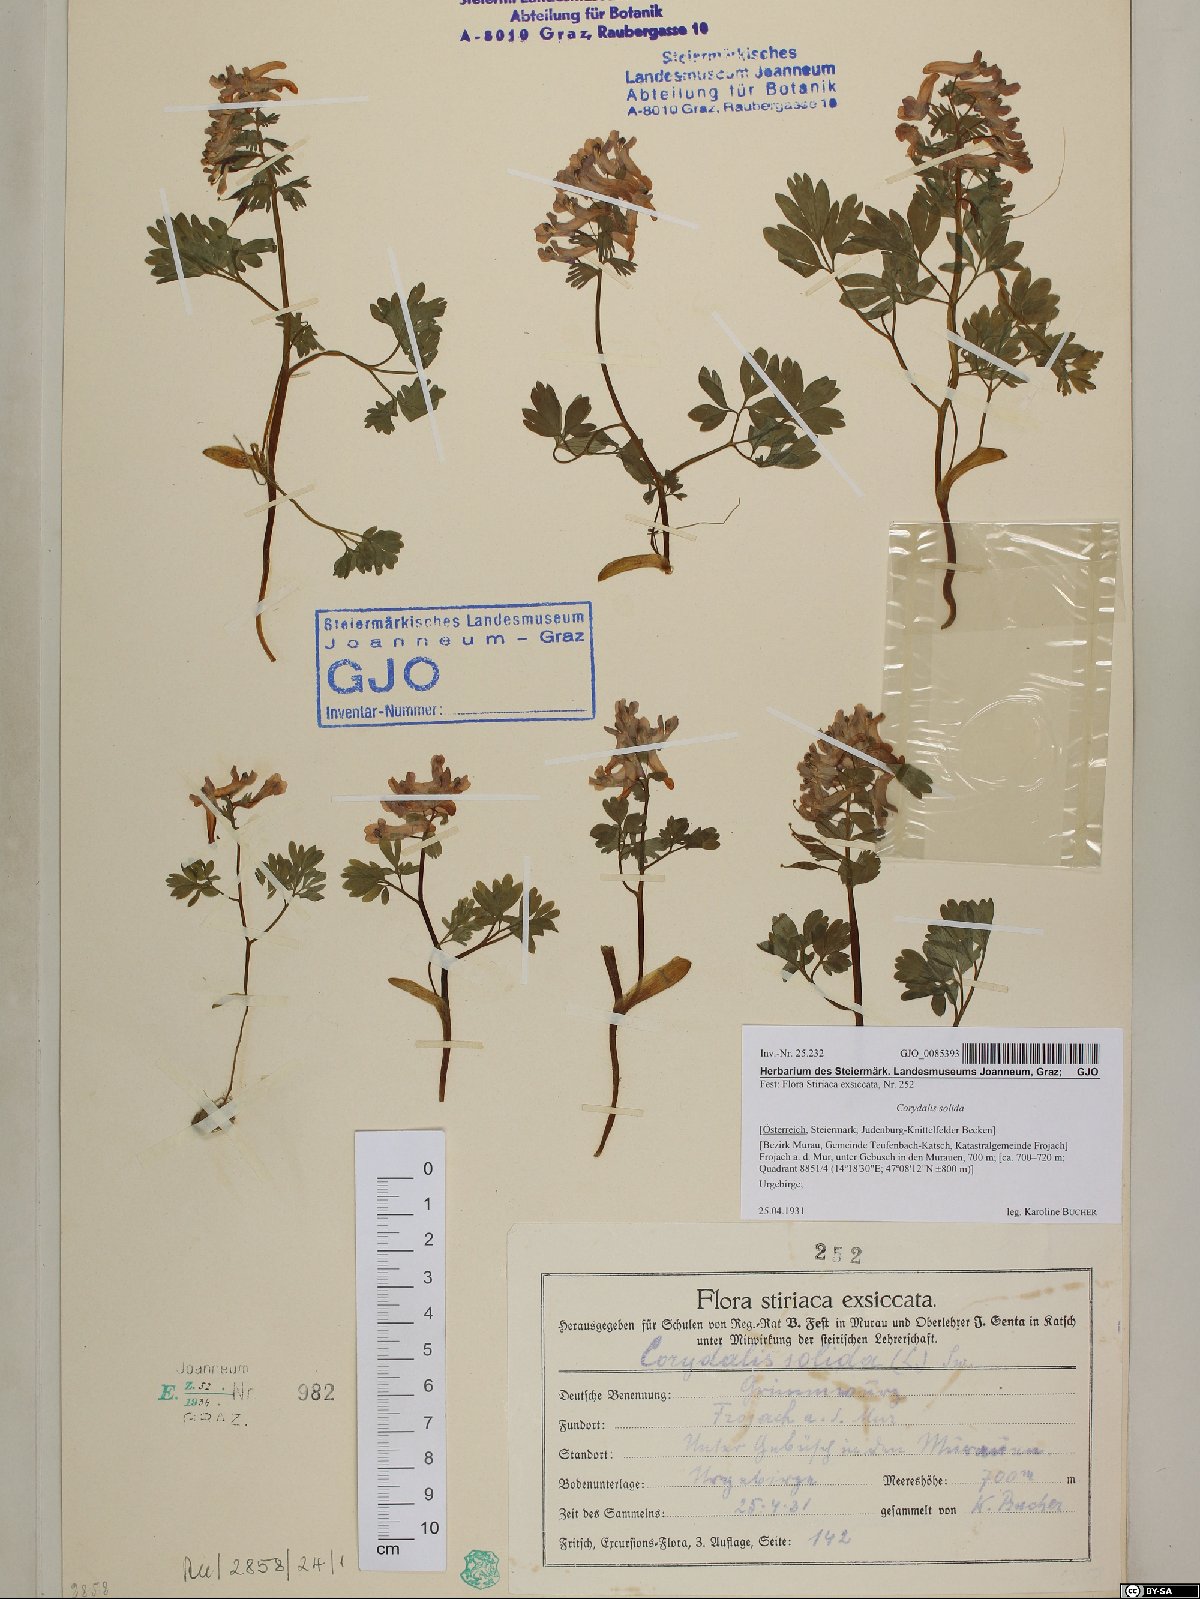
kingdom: Plantae
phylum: Tracheophyta
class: Magnoliopsida
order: Ranunculales
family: Papaveraceae
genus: Corydalis
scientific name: Corydalis solida
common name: Bird-in-a-bush
